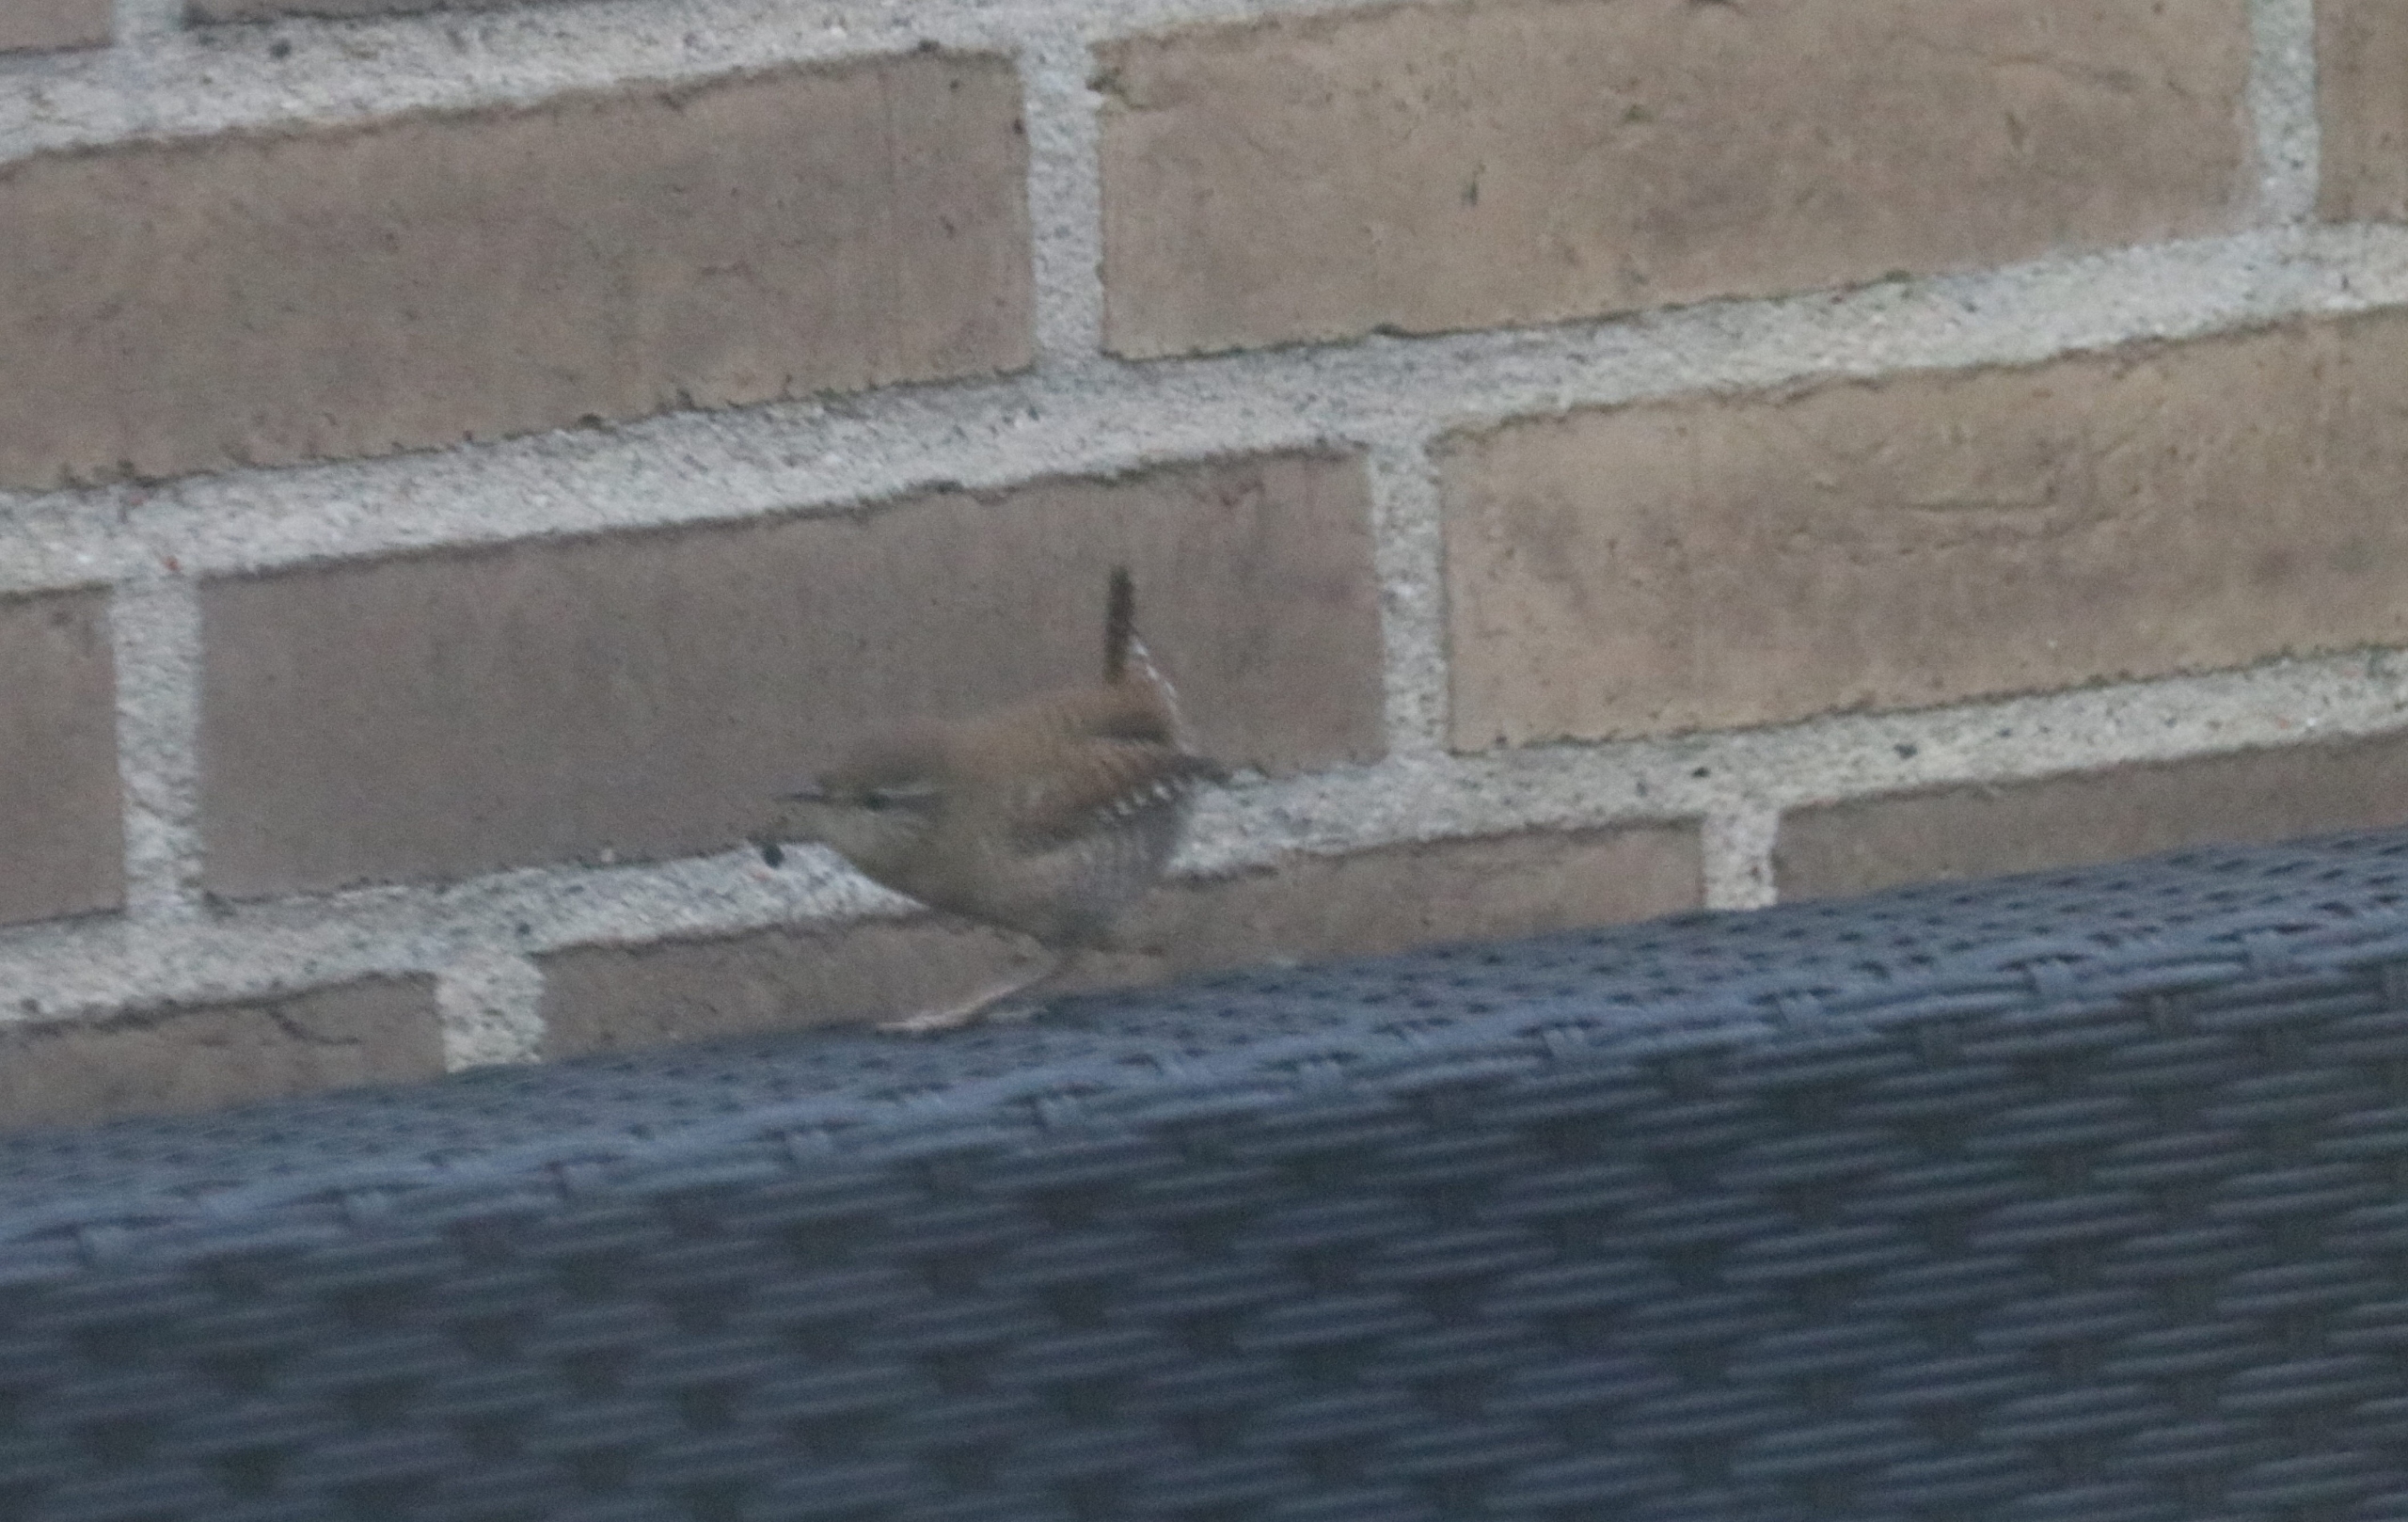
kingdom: Animalia
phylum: Chordata
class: Aves
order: Passeriformes
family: Troglodytidae
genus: Troglodytes
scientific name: Troglodytes troglodytes
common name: Gærdesmutte
